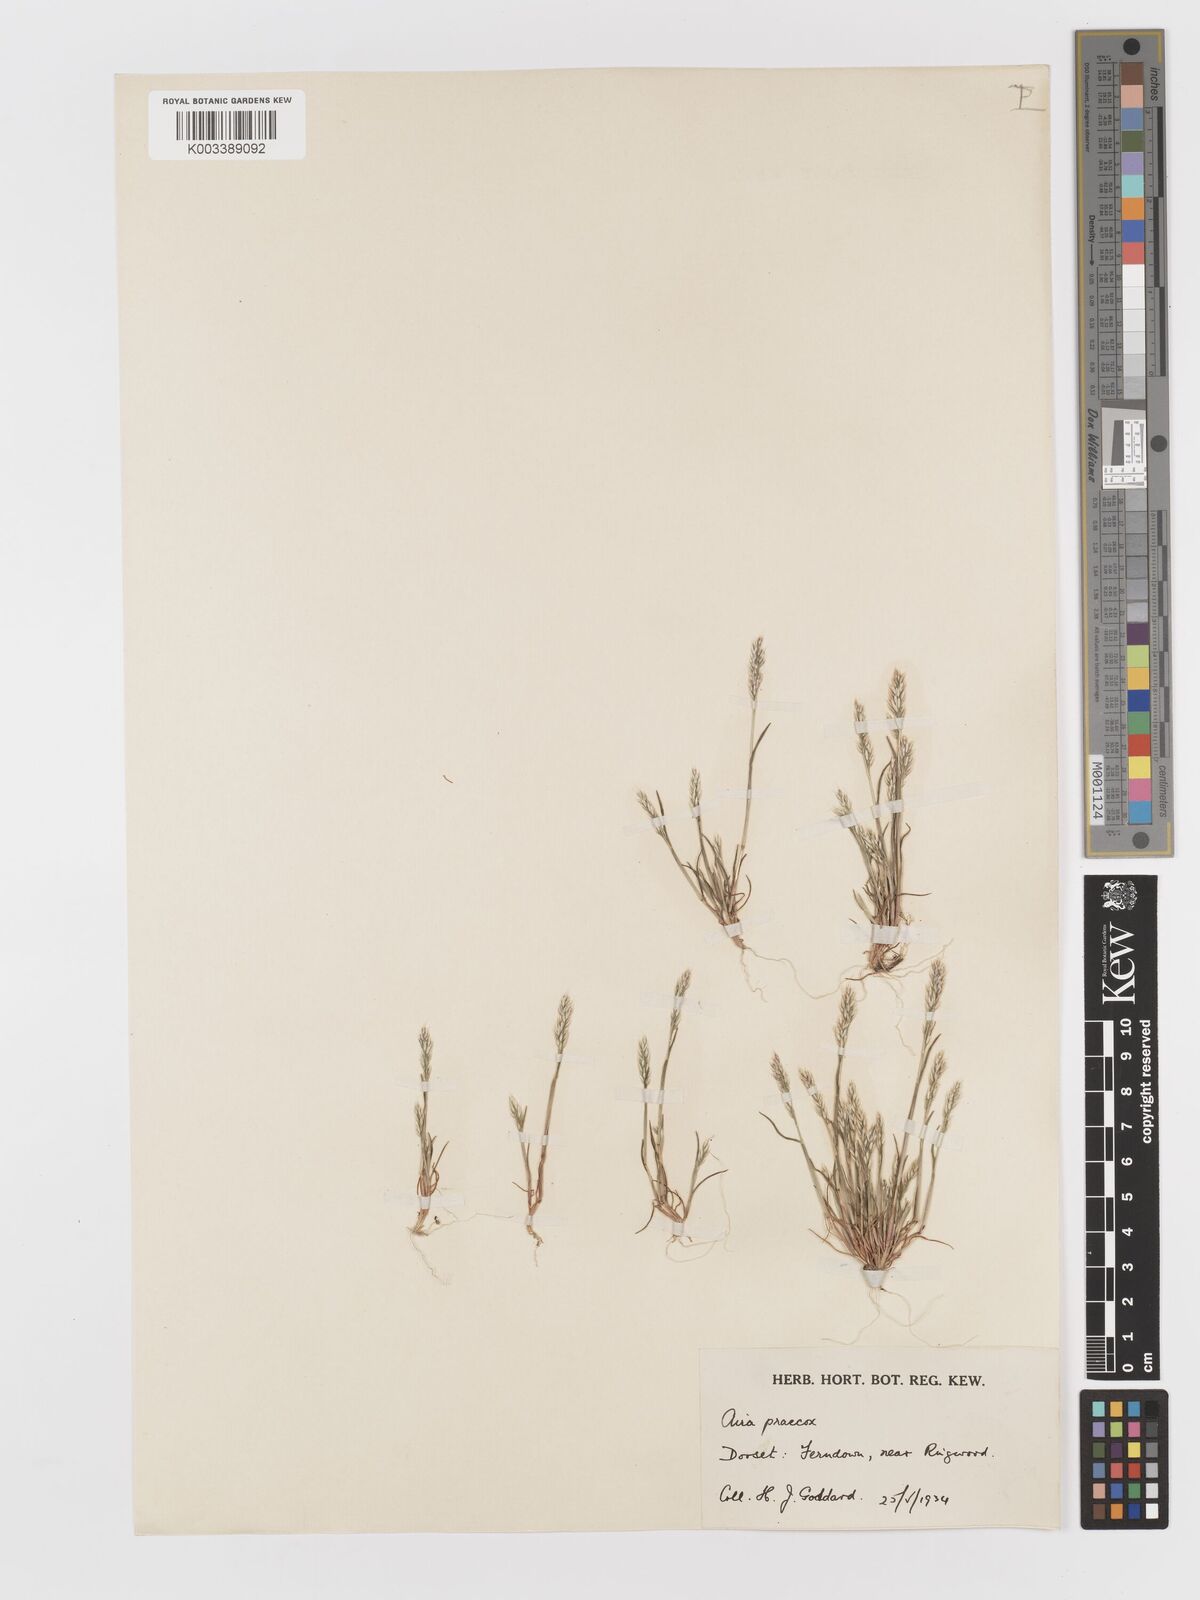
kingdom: Plantae
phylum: Tracheophyta
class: Liliopsida
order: Poales
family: Poaceae
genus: Aira
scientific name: Aira praecox
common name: Early hair-grass
